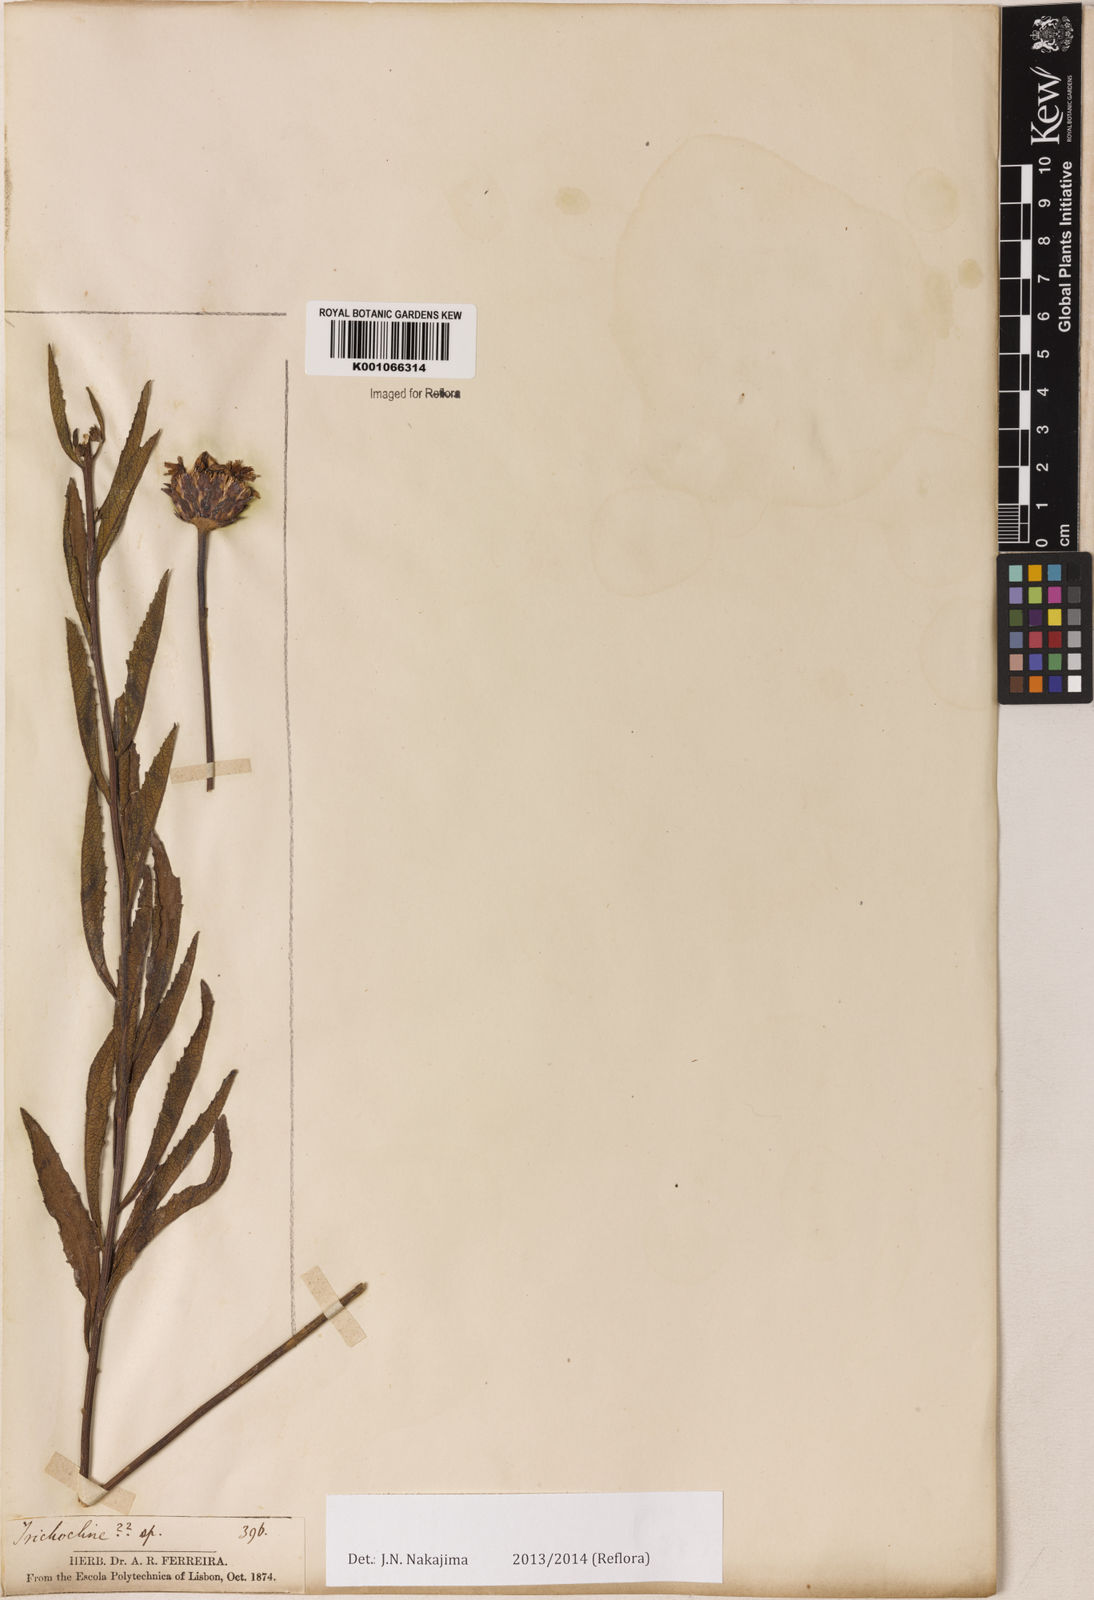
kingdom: Plantae
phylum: Tracheophyta
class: Magnoliopsida
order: Asterales
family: Asteraceae
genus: Lessingianthus
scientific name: Lessingianthus erythrophilus
